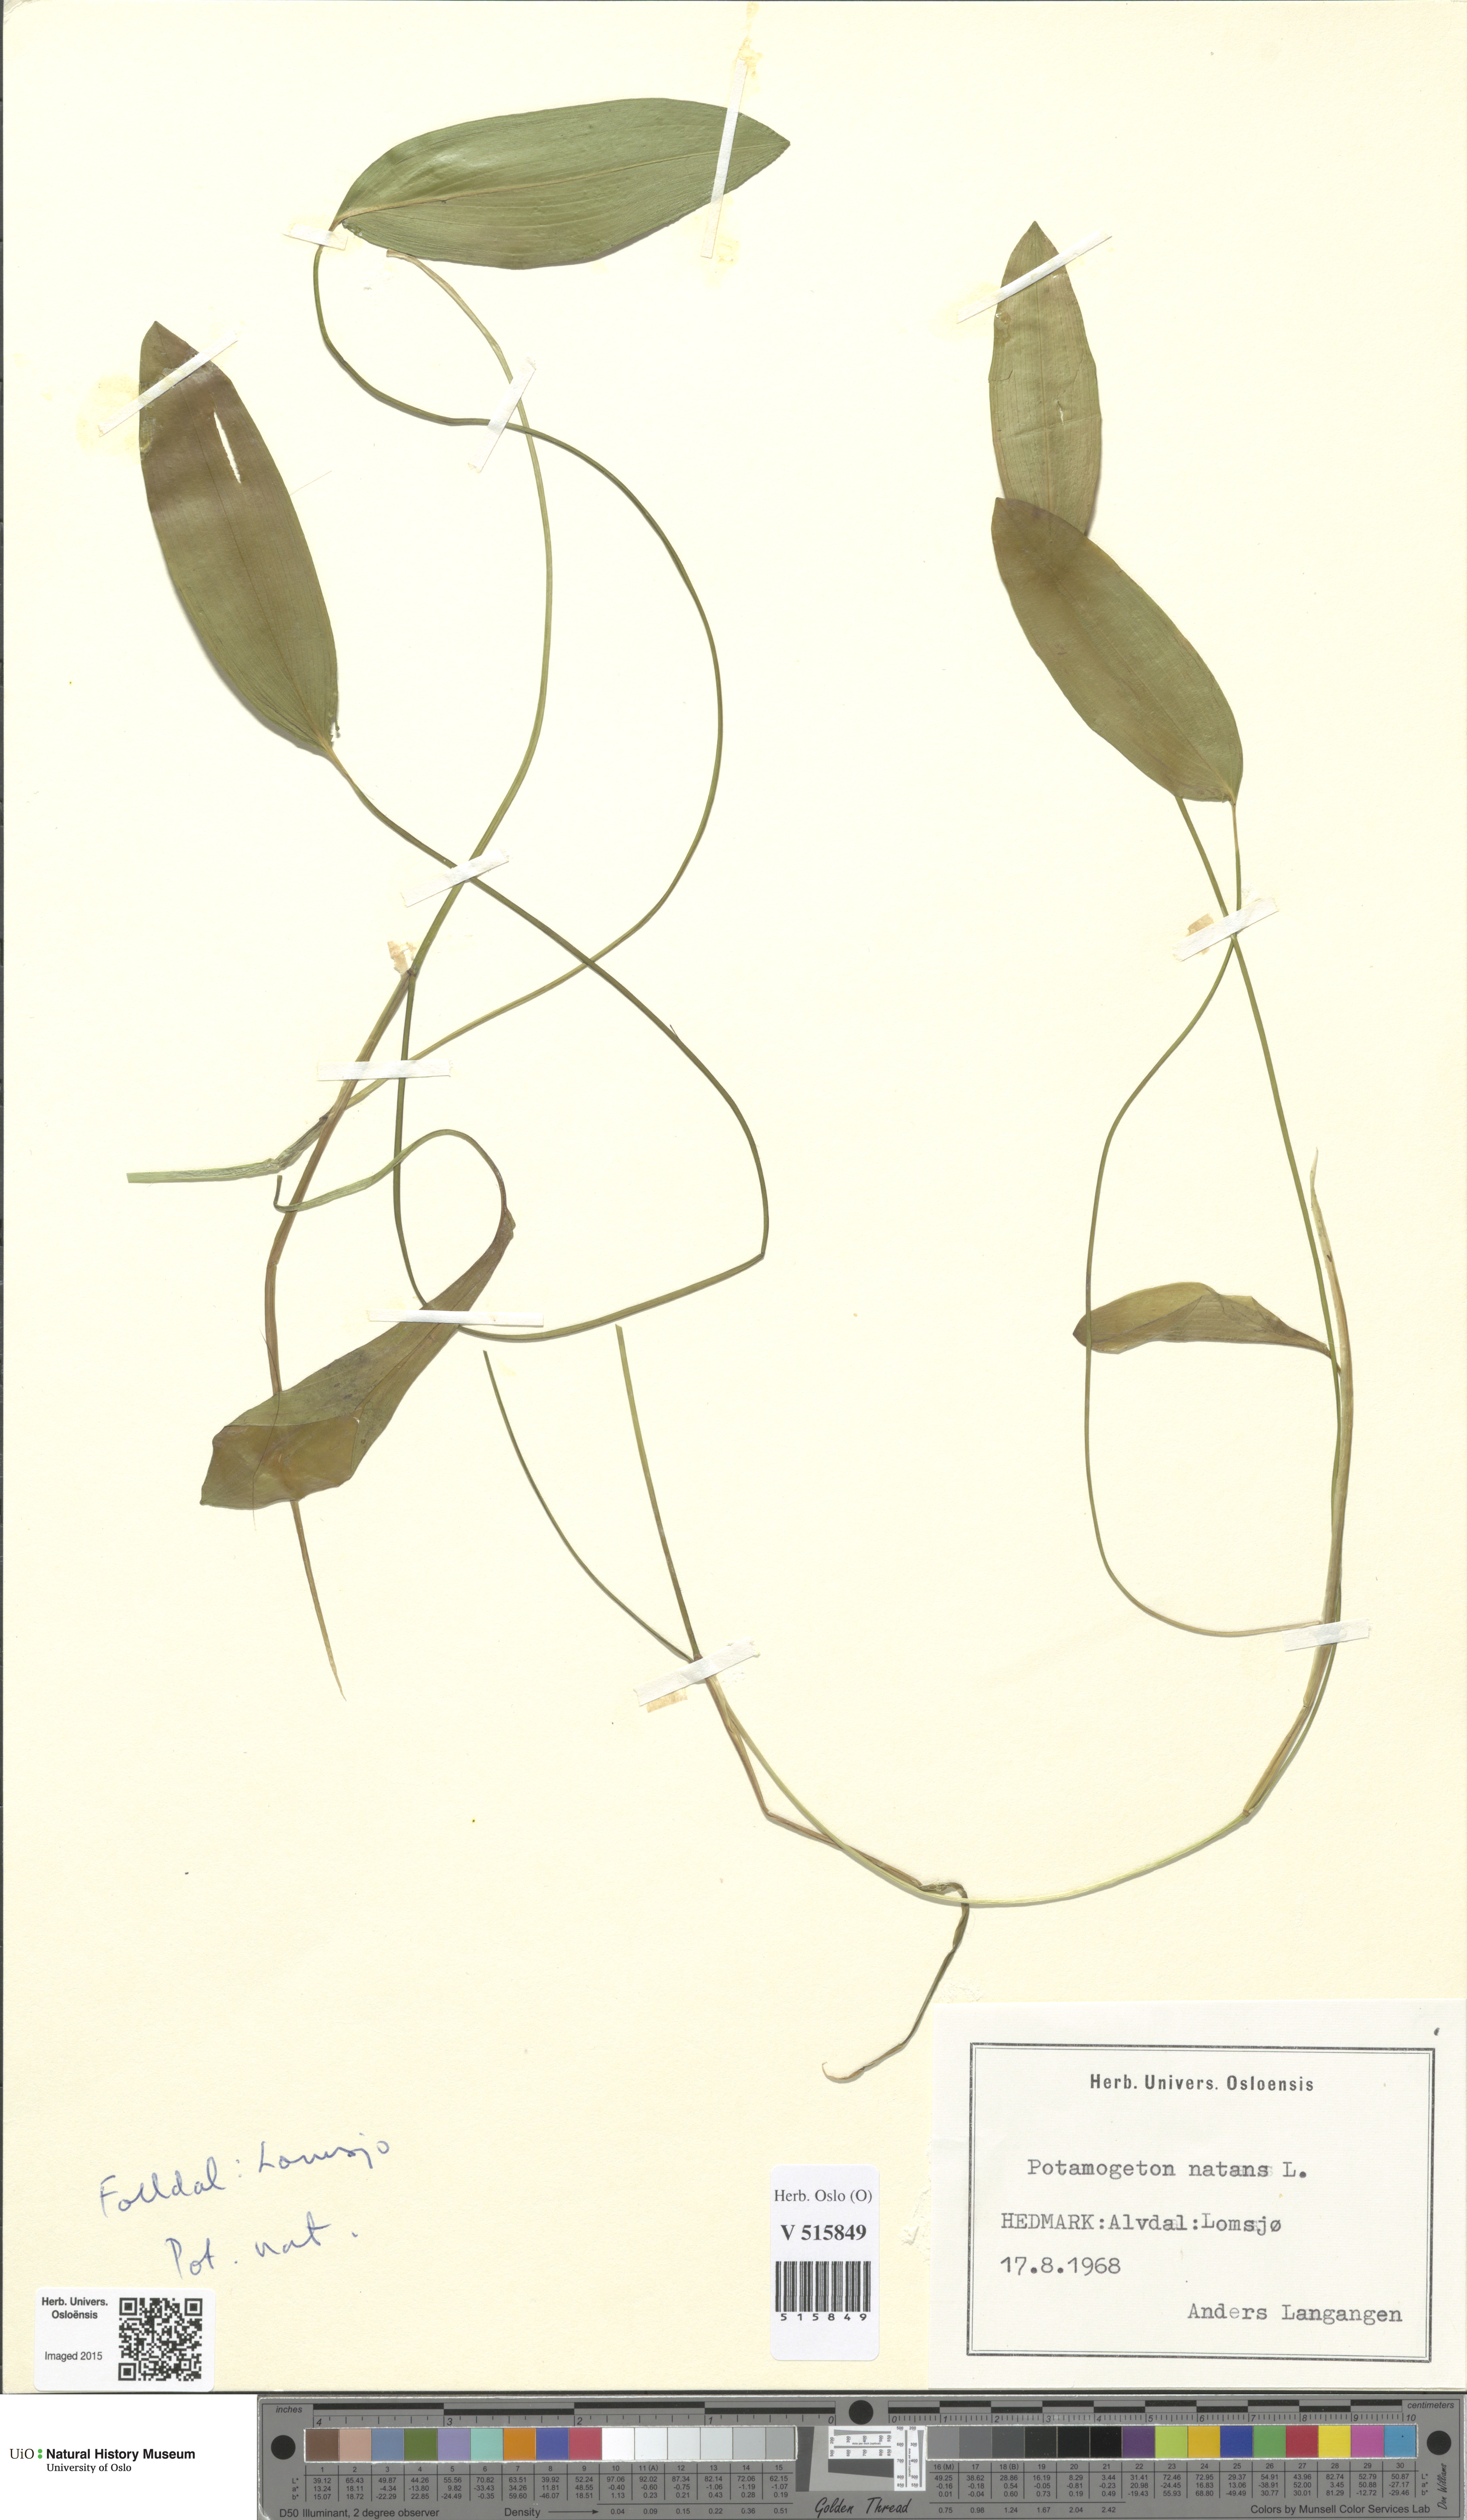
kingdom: Plantae
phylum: Tracheophyta
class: Liliopsida
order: Alismatales
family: Potamogetonaceae
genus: Potamogeton
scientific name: Potamogeton natans
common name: Broad-leaved pondweed
